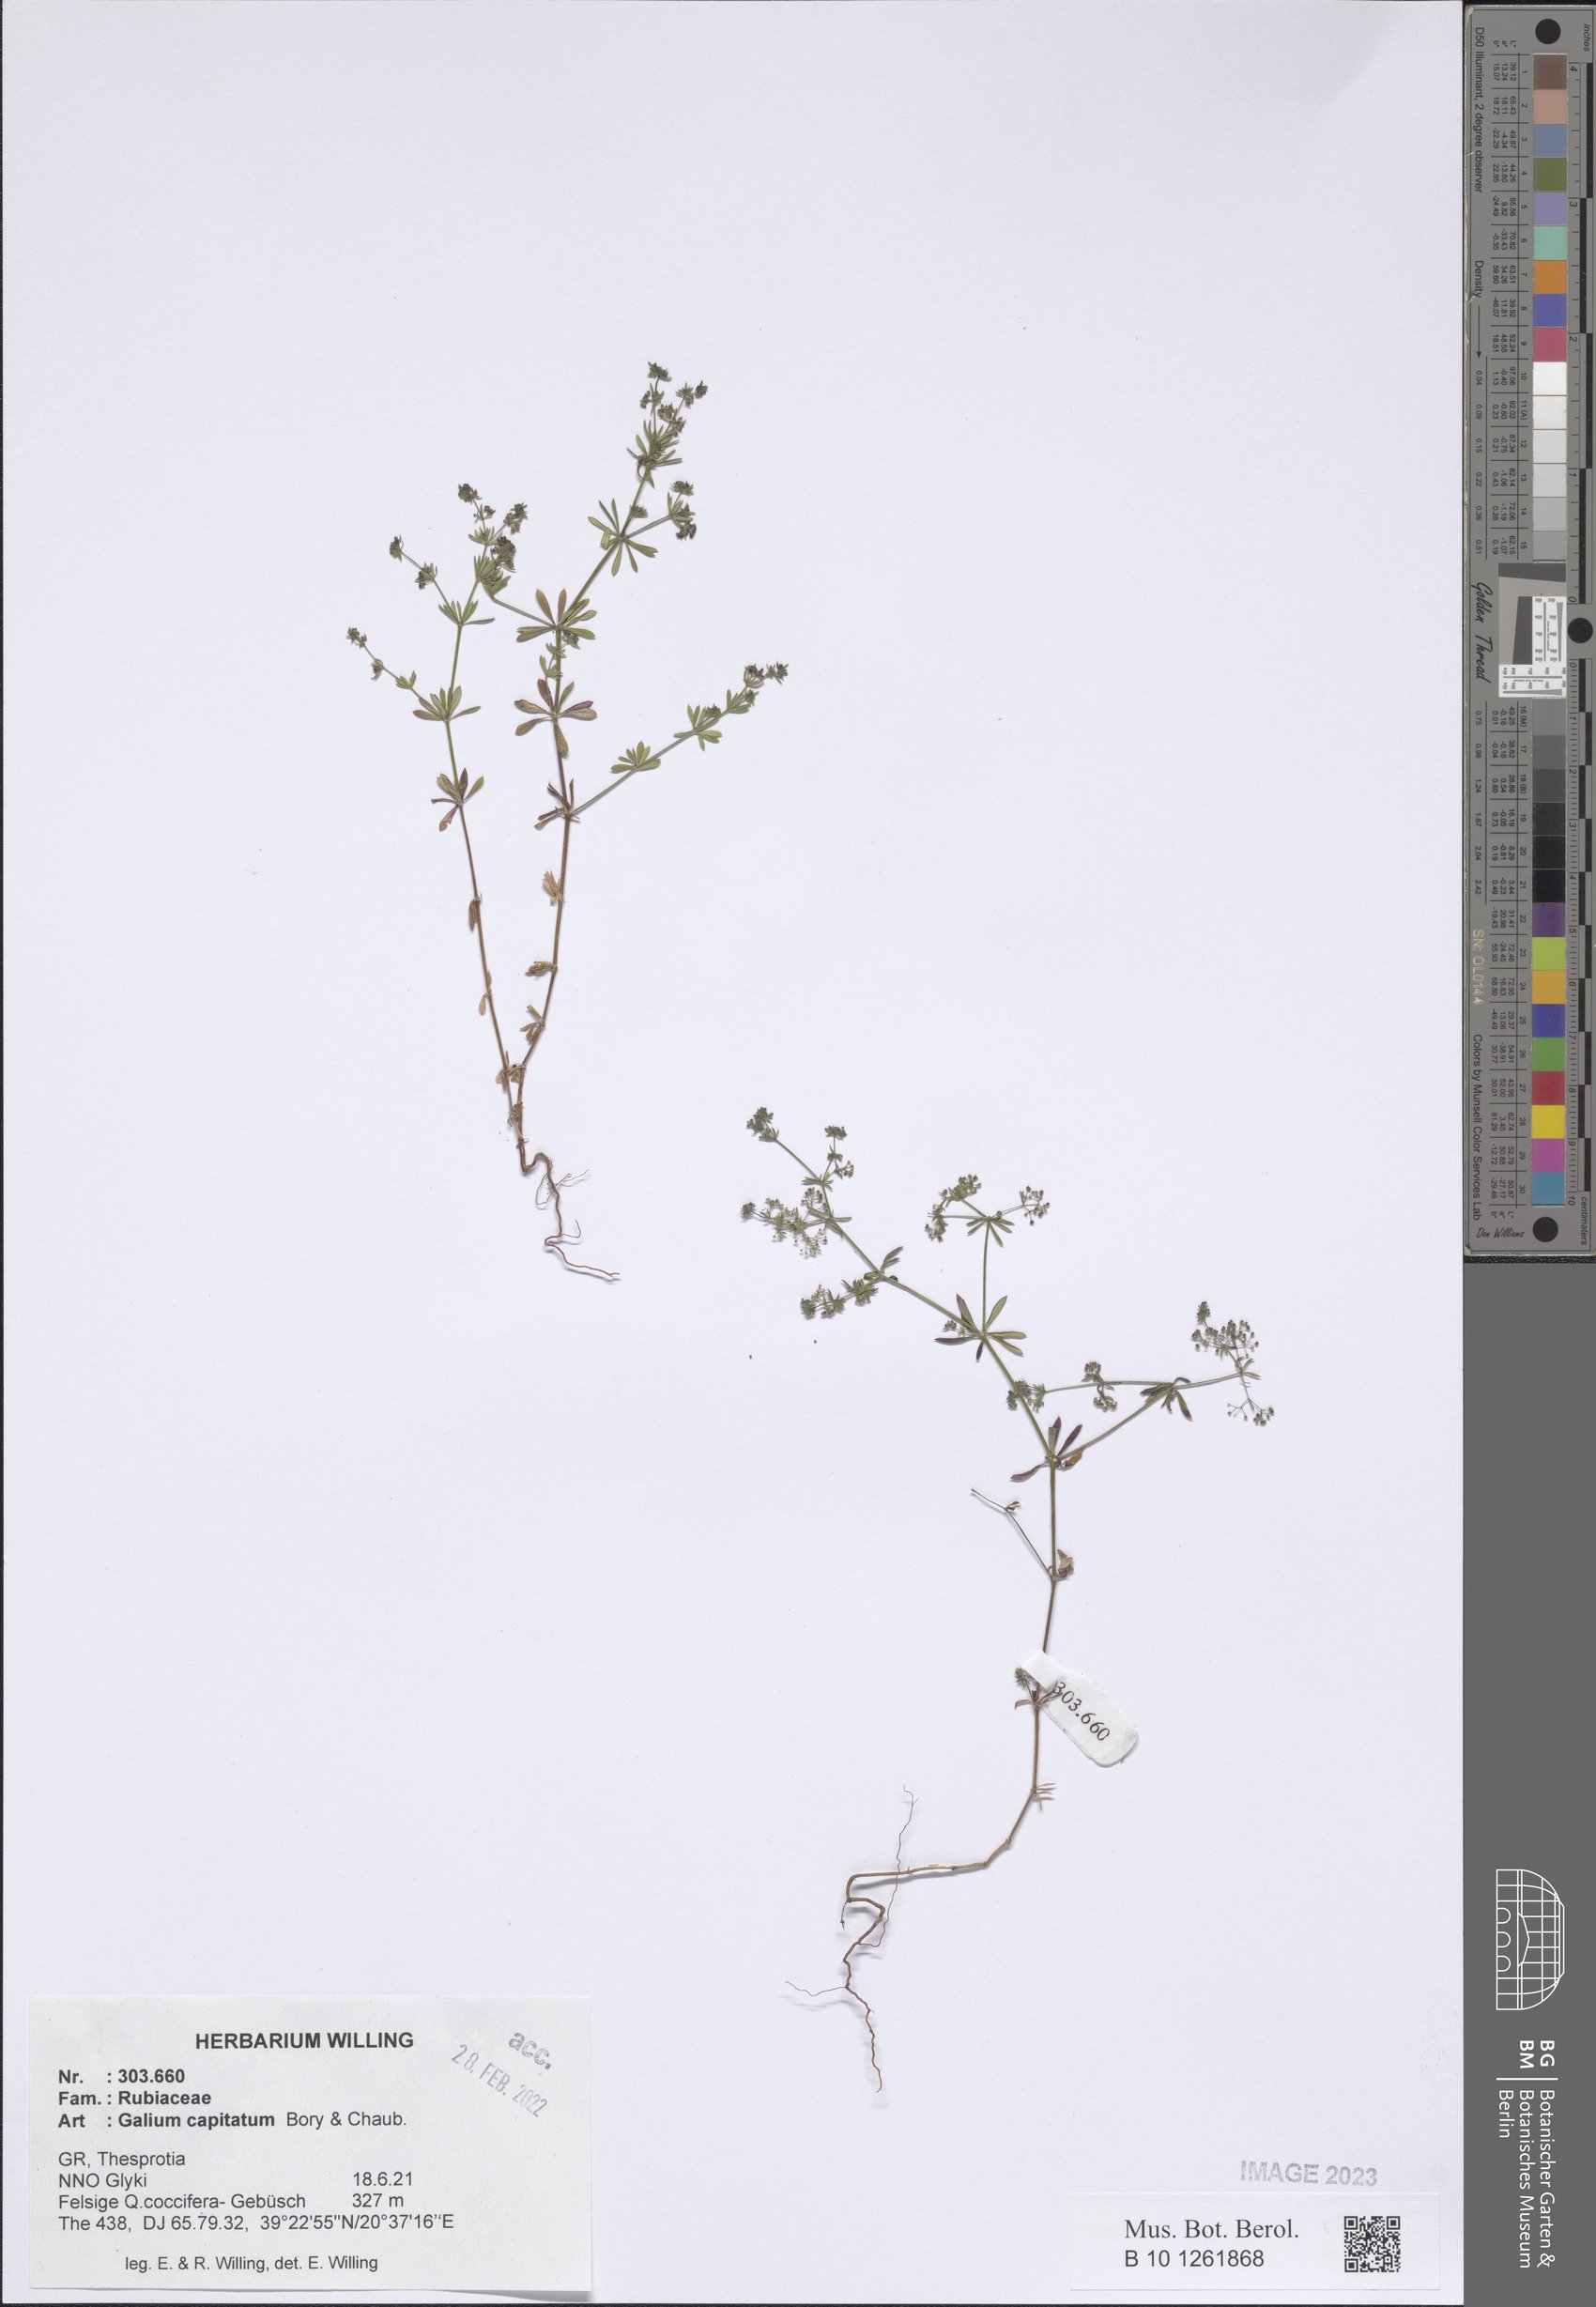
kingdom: Plantae
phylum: Tracheophyta
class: Magnoliopsida
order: Gentianales
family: Rubiaceae
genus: Galium
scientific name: Galium capitatum
